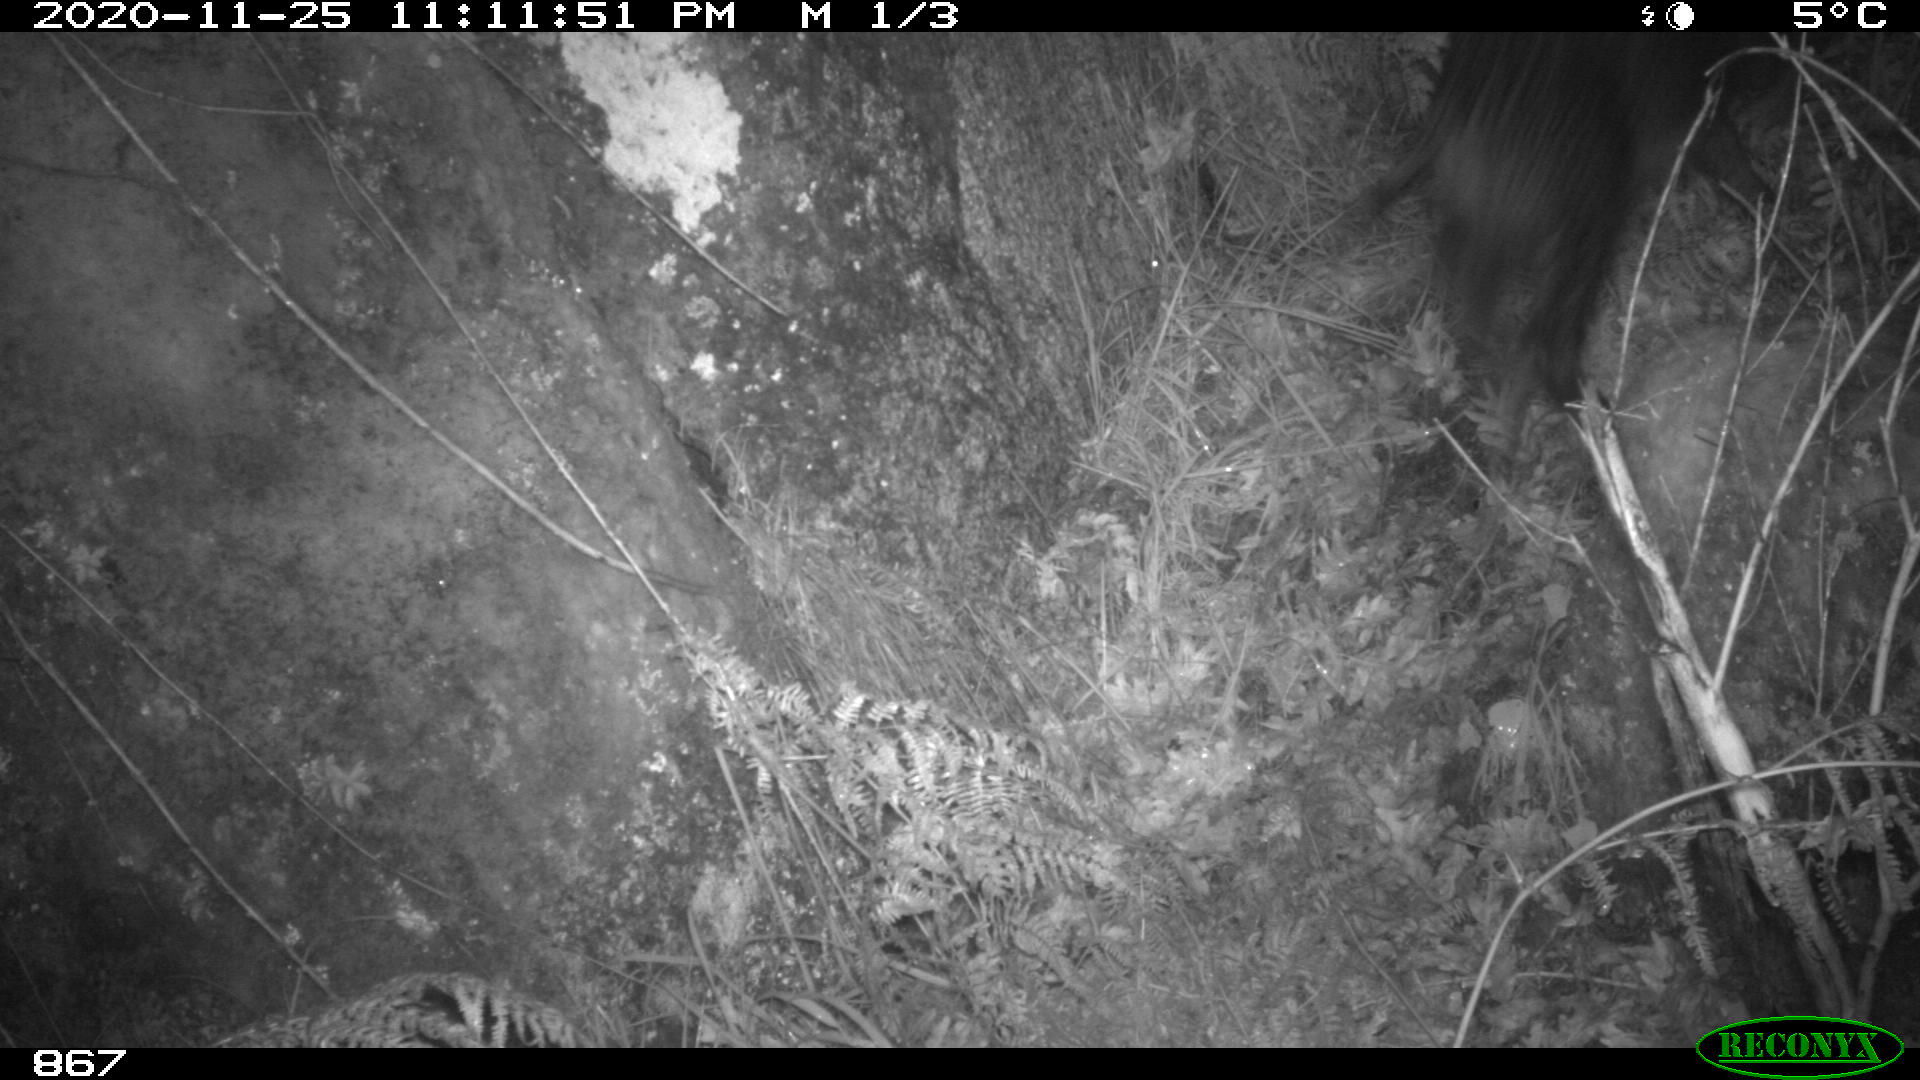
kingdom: Animalia
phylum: Chordata
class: Mammalia
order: Artiodactyla
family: Suidae
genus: Sus
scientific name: Sus scrofa
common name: Wild boar
